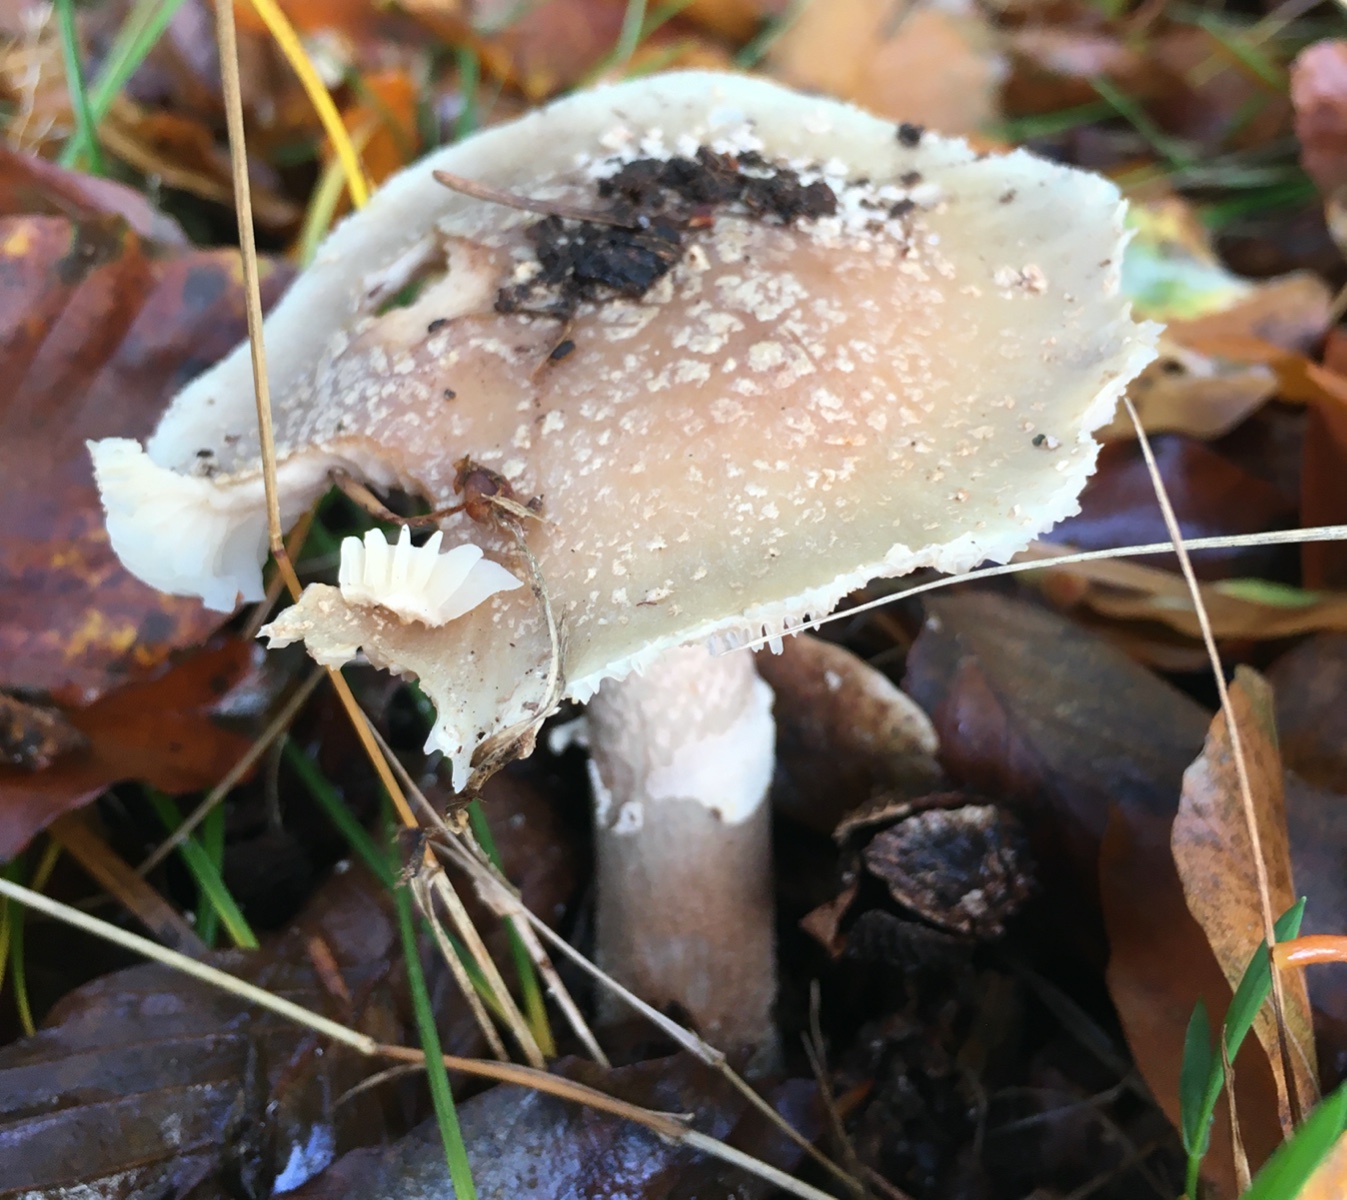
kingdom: Fungi
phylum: Basidiomycota
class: Agaricomycetes
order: Agaricales
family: Amanitaceae
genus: Amanita
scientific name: Amanita rubescens
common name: rødmende fluesvamp
